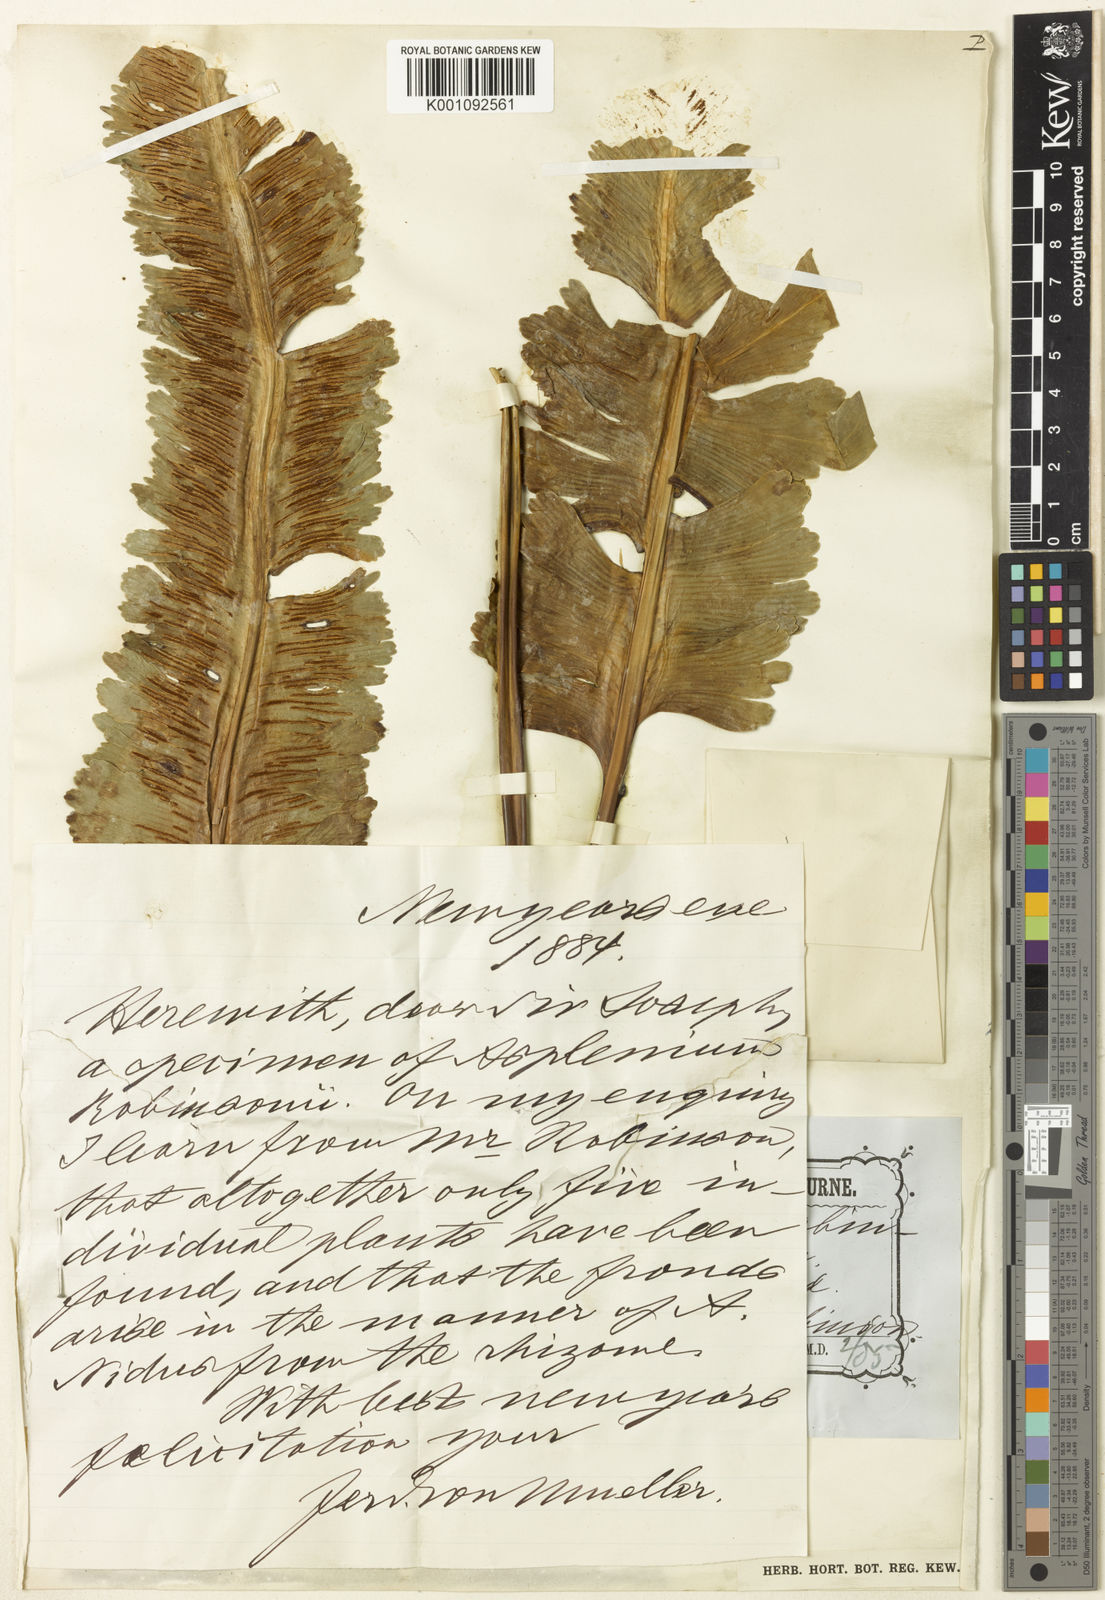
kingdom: Plantae
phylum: Tracheophyta
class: Polypodiopsida
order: Polypodiales
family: Aspleniaceae
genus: Asplenium
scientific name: Asplenium australasicum
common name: Bird's-nest fern
